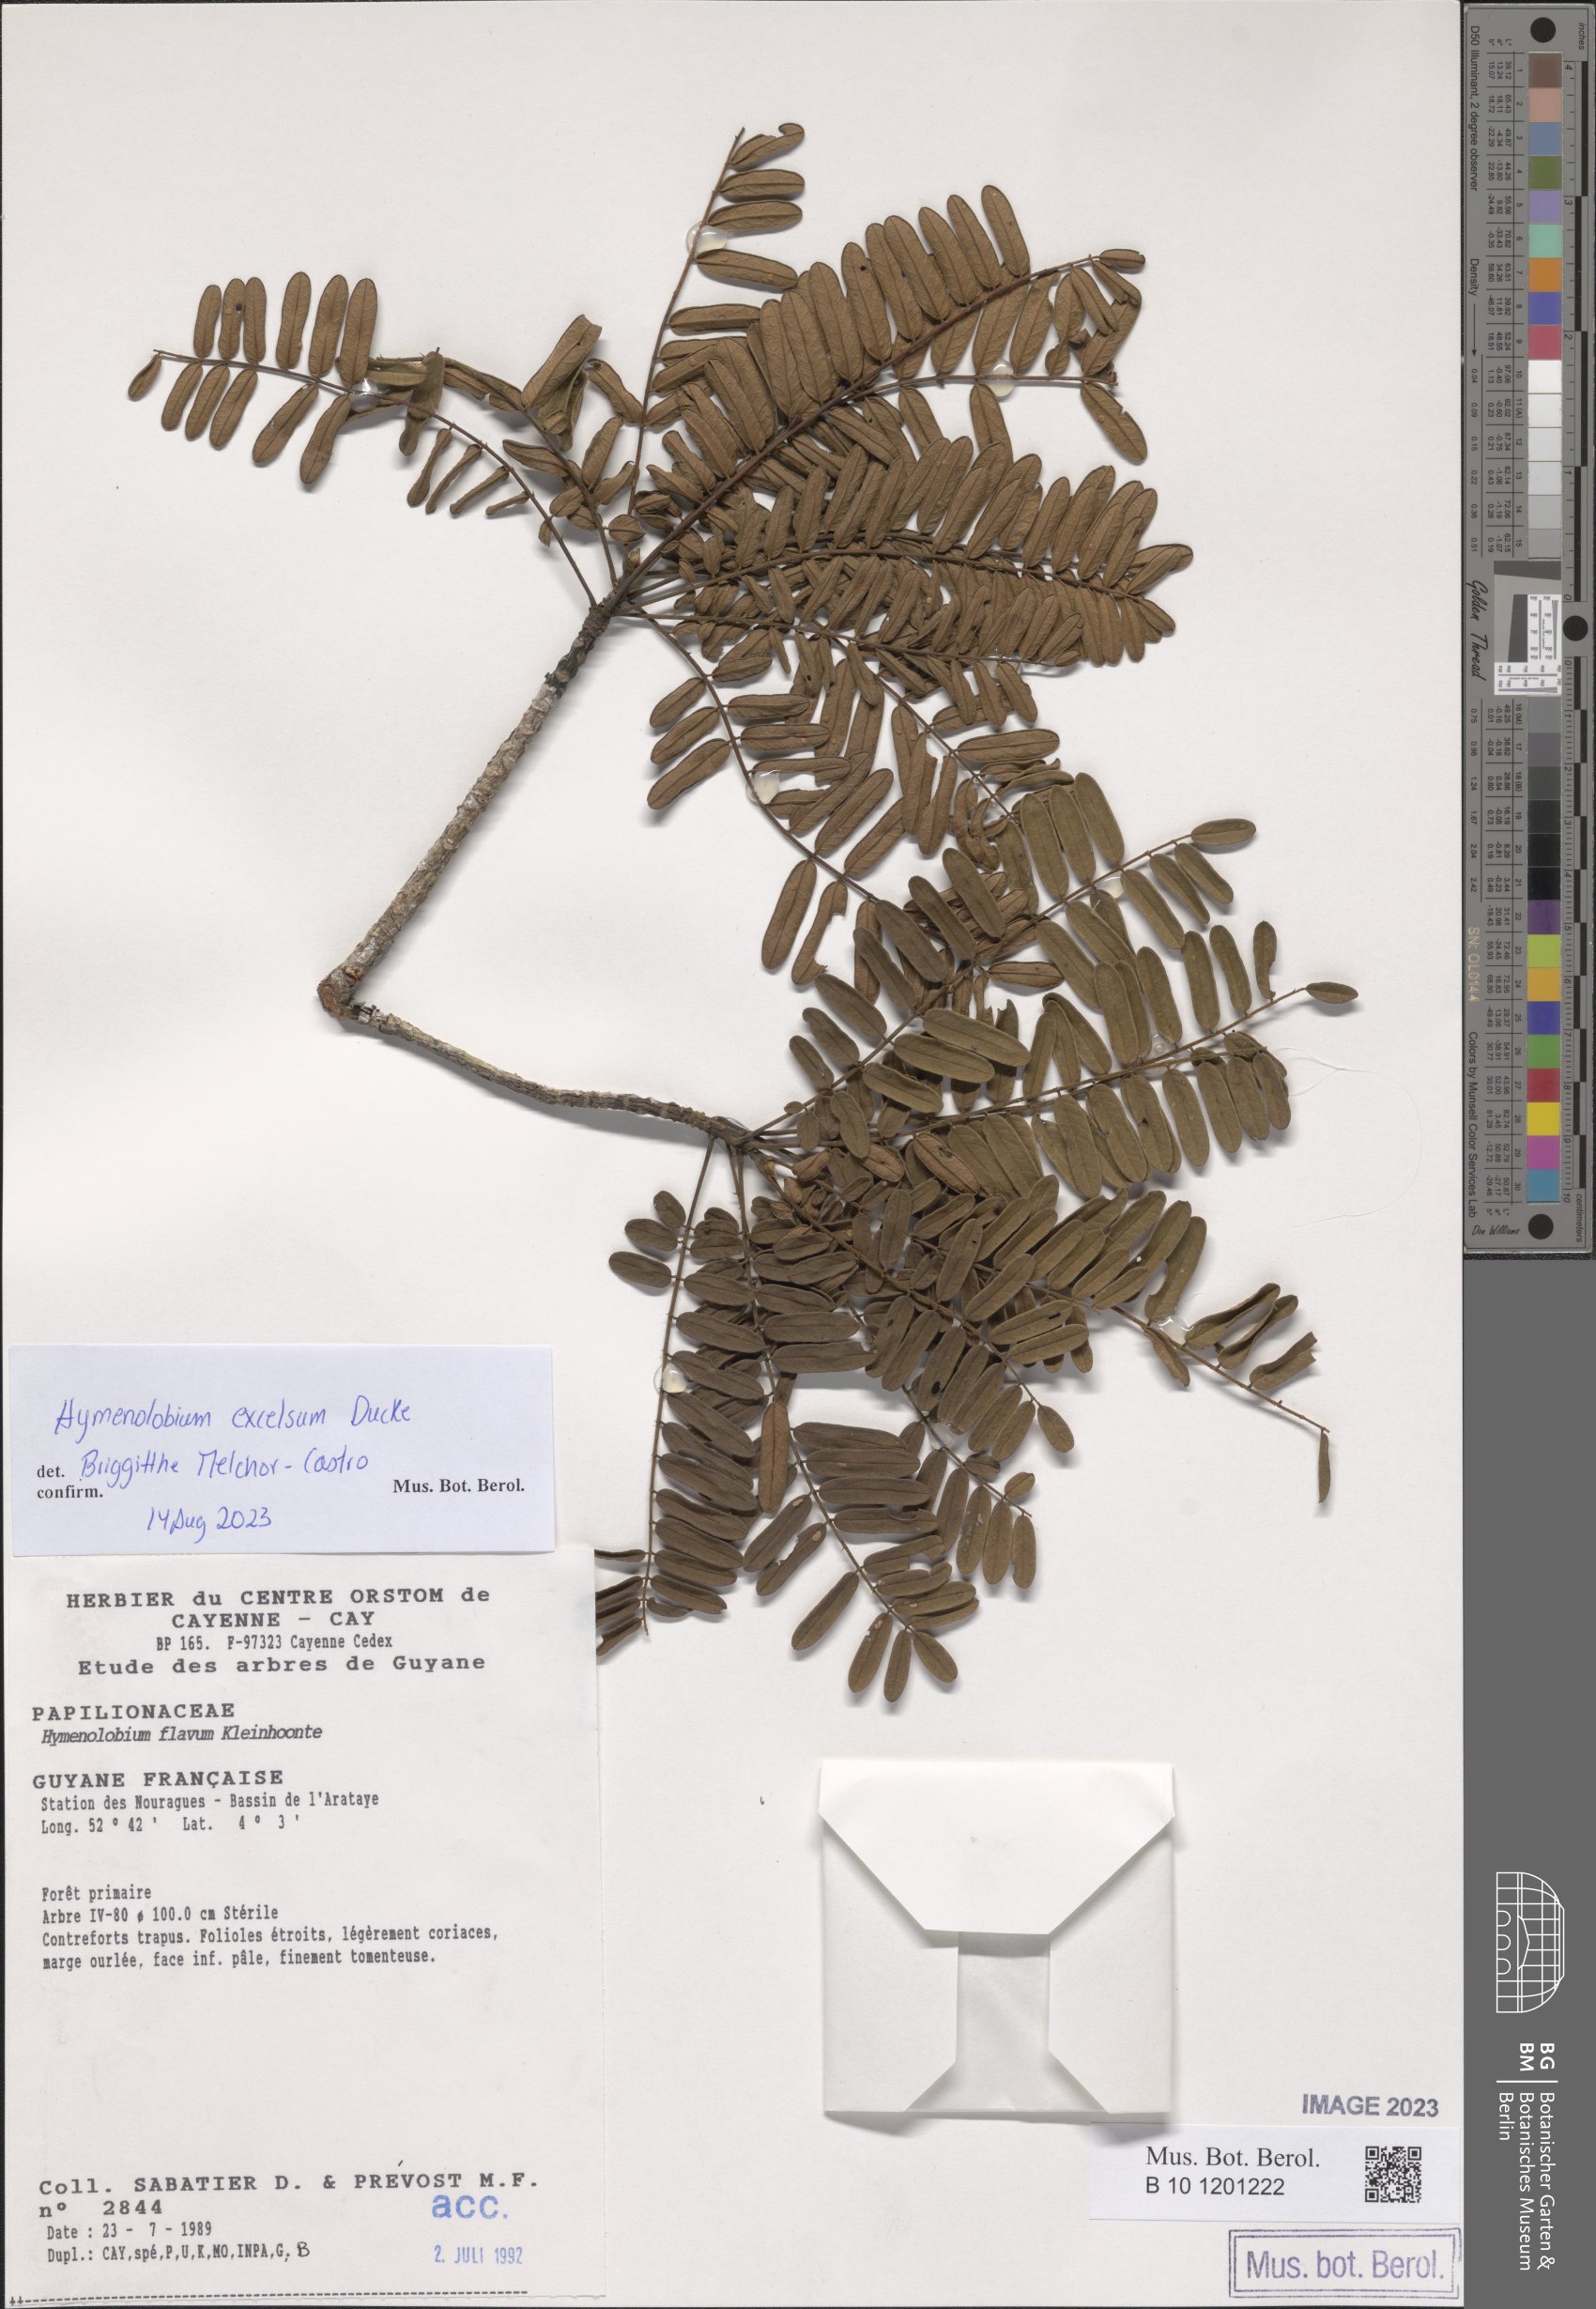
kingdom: Plantae
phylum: Tracheophyta
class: Magnoliopsida
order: Fabales
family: Fabaceae
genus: Hymenolobium
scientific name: Hymenolobium excelsum
